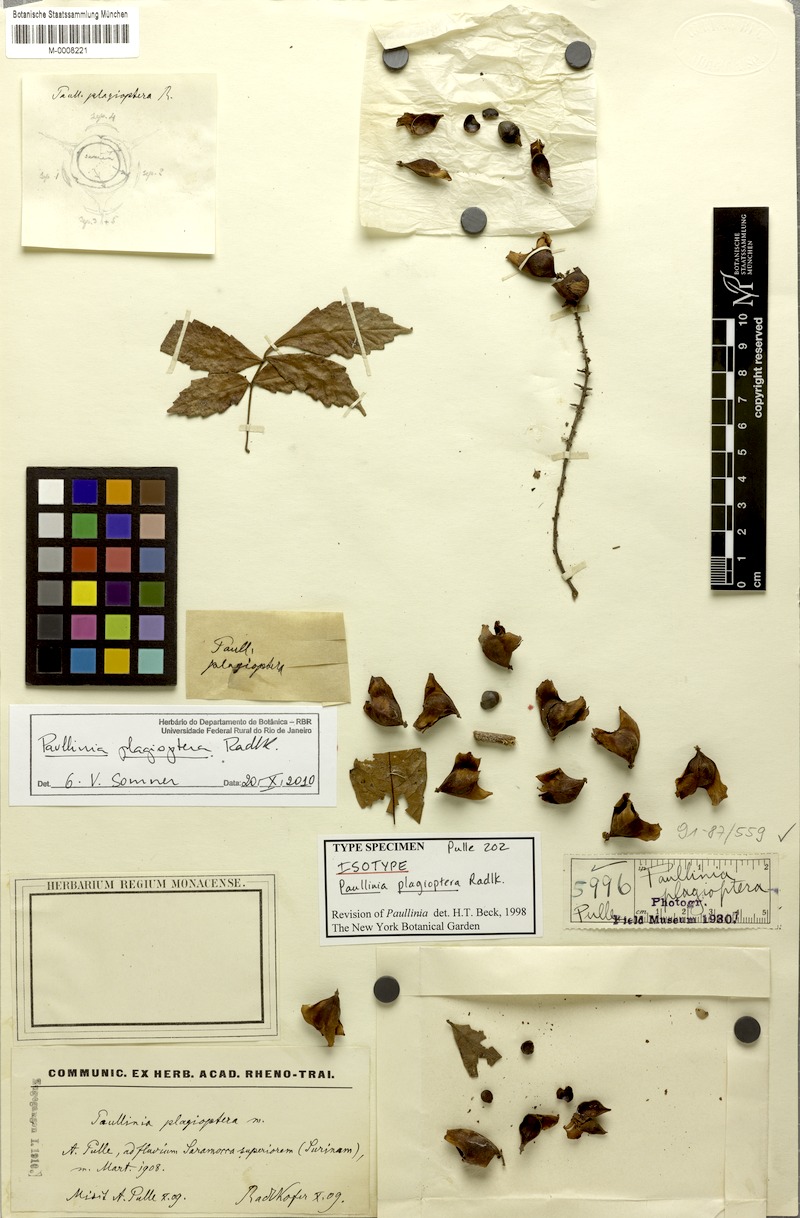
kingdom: Plantae
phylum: Tracheophyta
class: Magnoliopsida
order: Sapindales
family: Sapindaceae
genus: Paullinia
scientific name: Paullinia plagioptera
